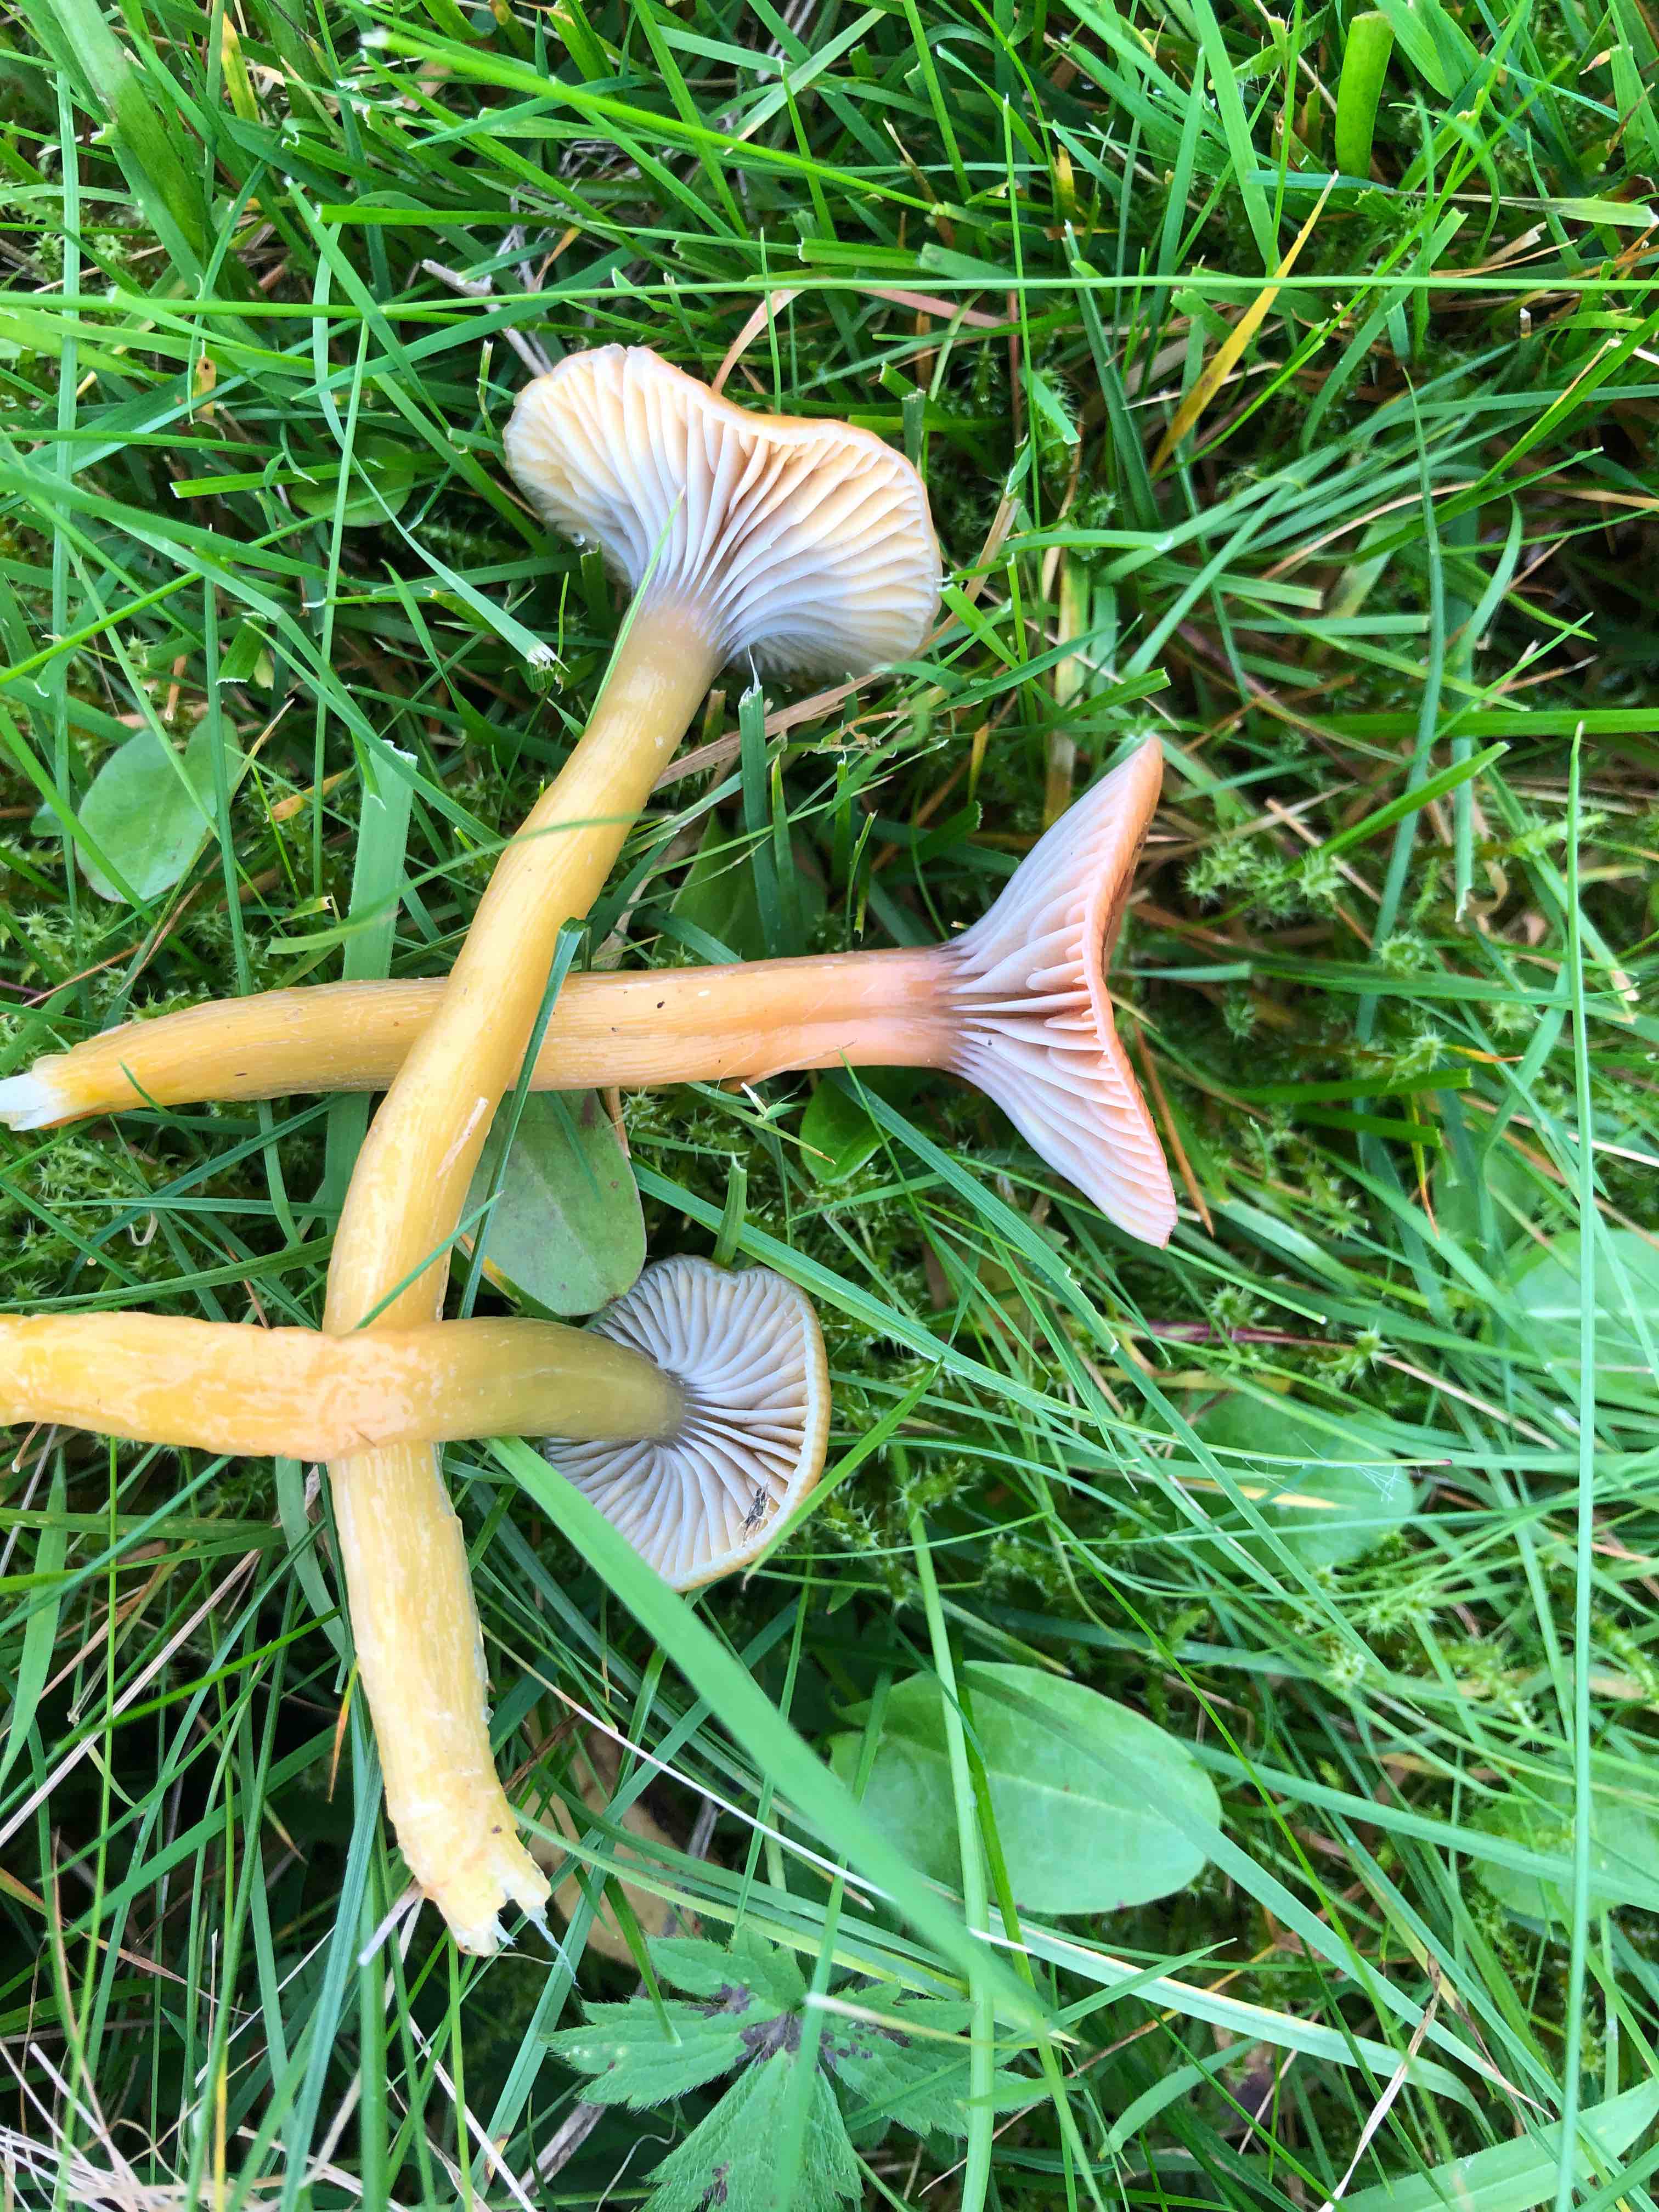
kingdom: Fungi
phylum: Basidiomycota
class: Agaricomycetes
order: Agaricales
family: Hygrophoraceae
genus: Gliophorus
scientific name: Gliophorus laetus
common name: brusk-vokshat
